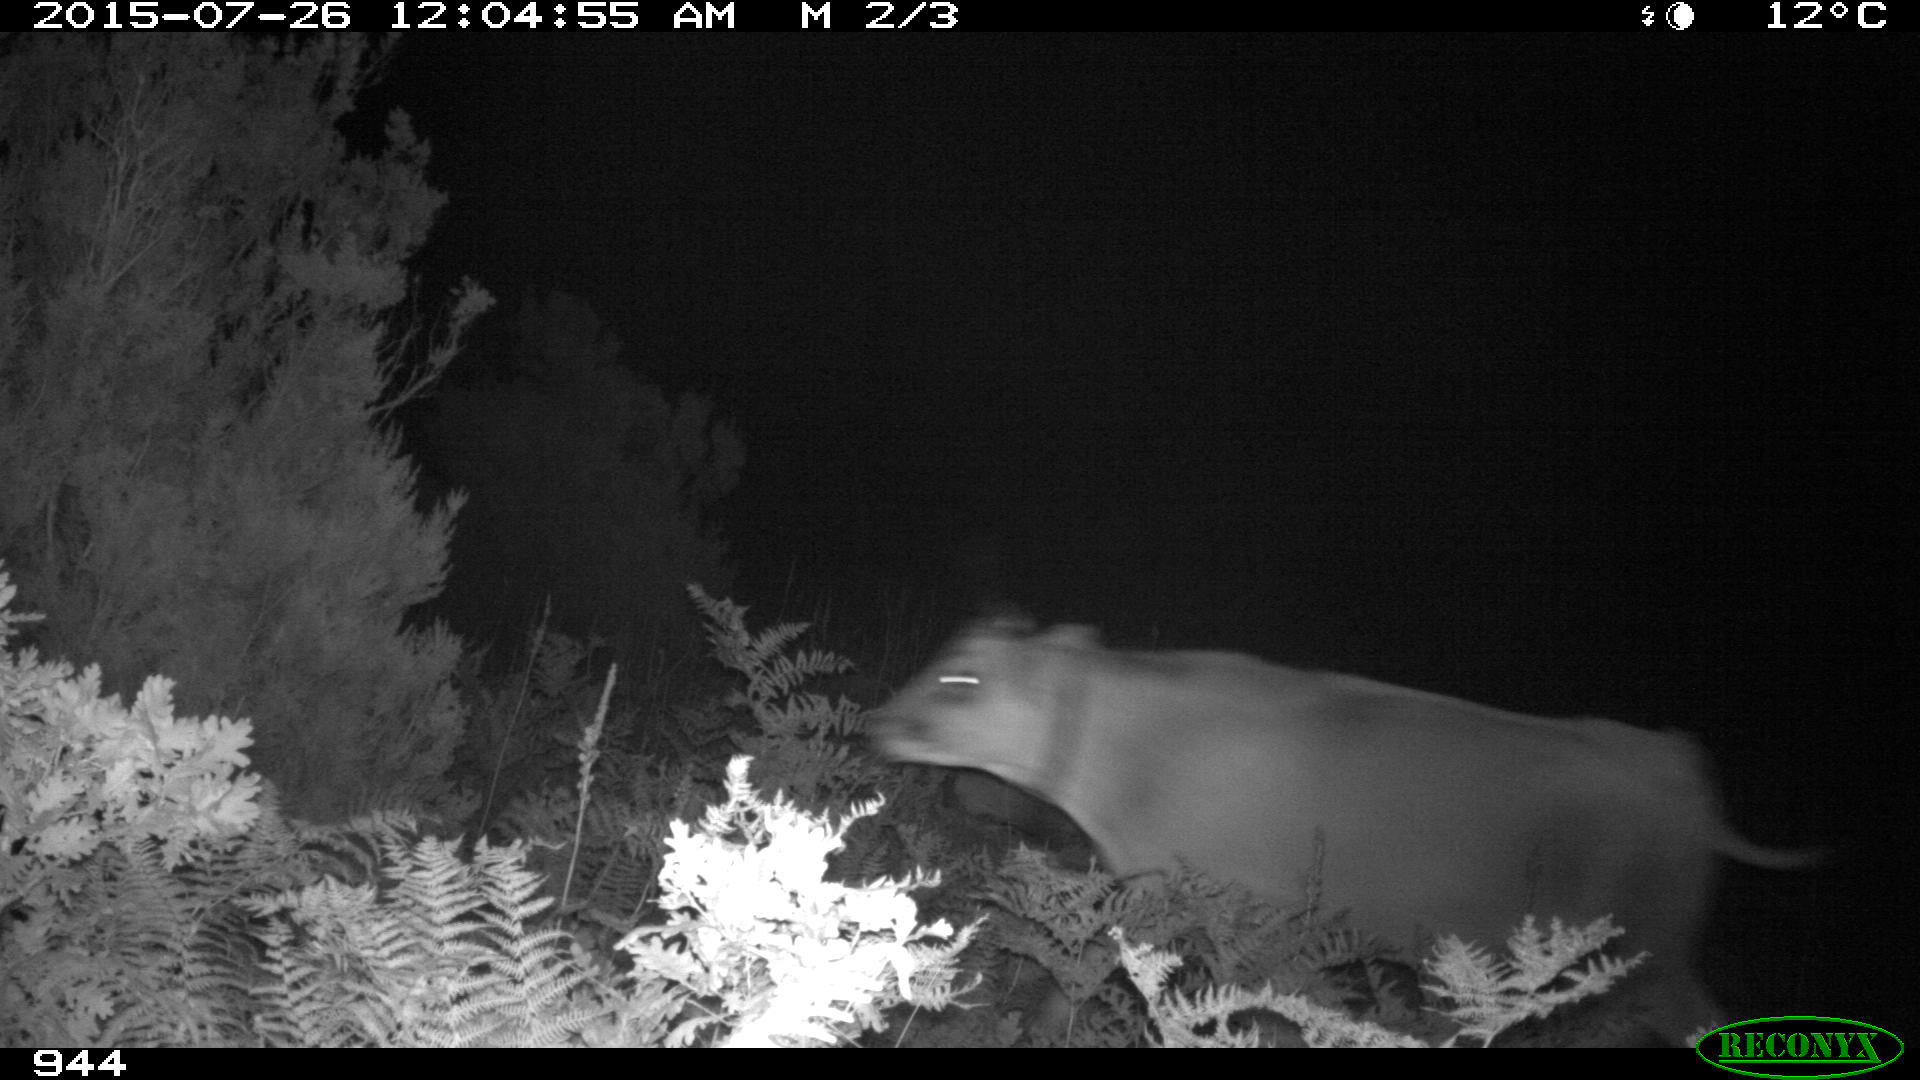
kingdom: Animalia
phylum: Chordata
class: Mammalia
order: Artiodactyla
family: Bovidae
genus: Bos
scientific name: Bos taurus
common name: Domesticated cattle
